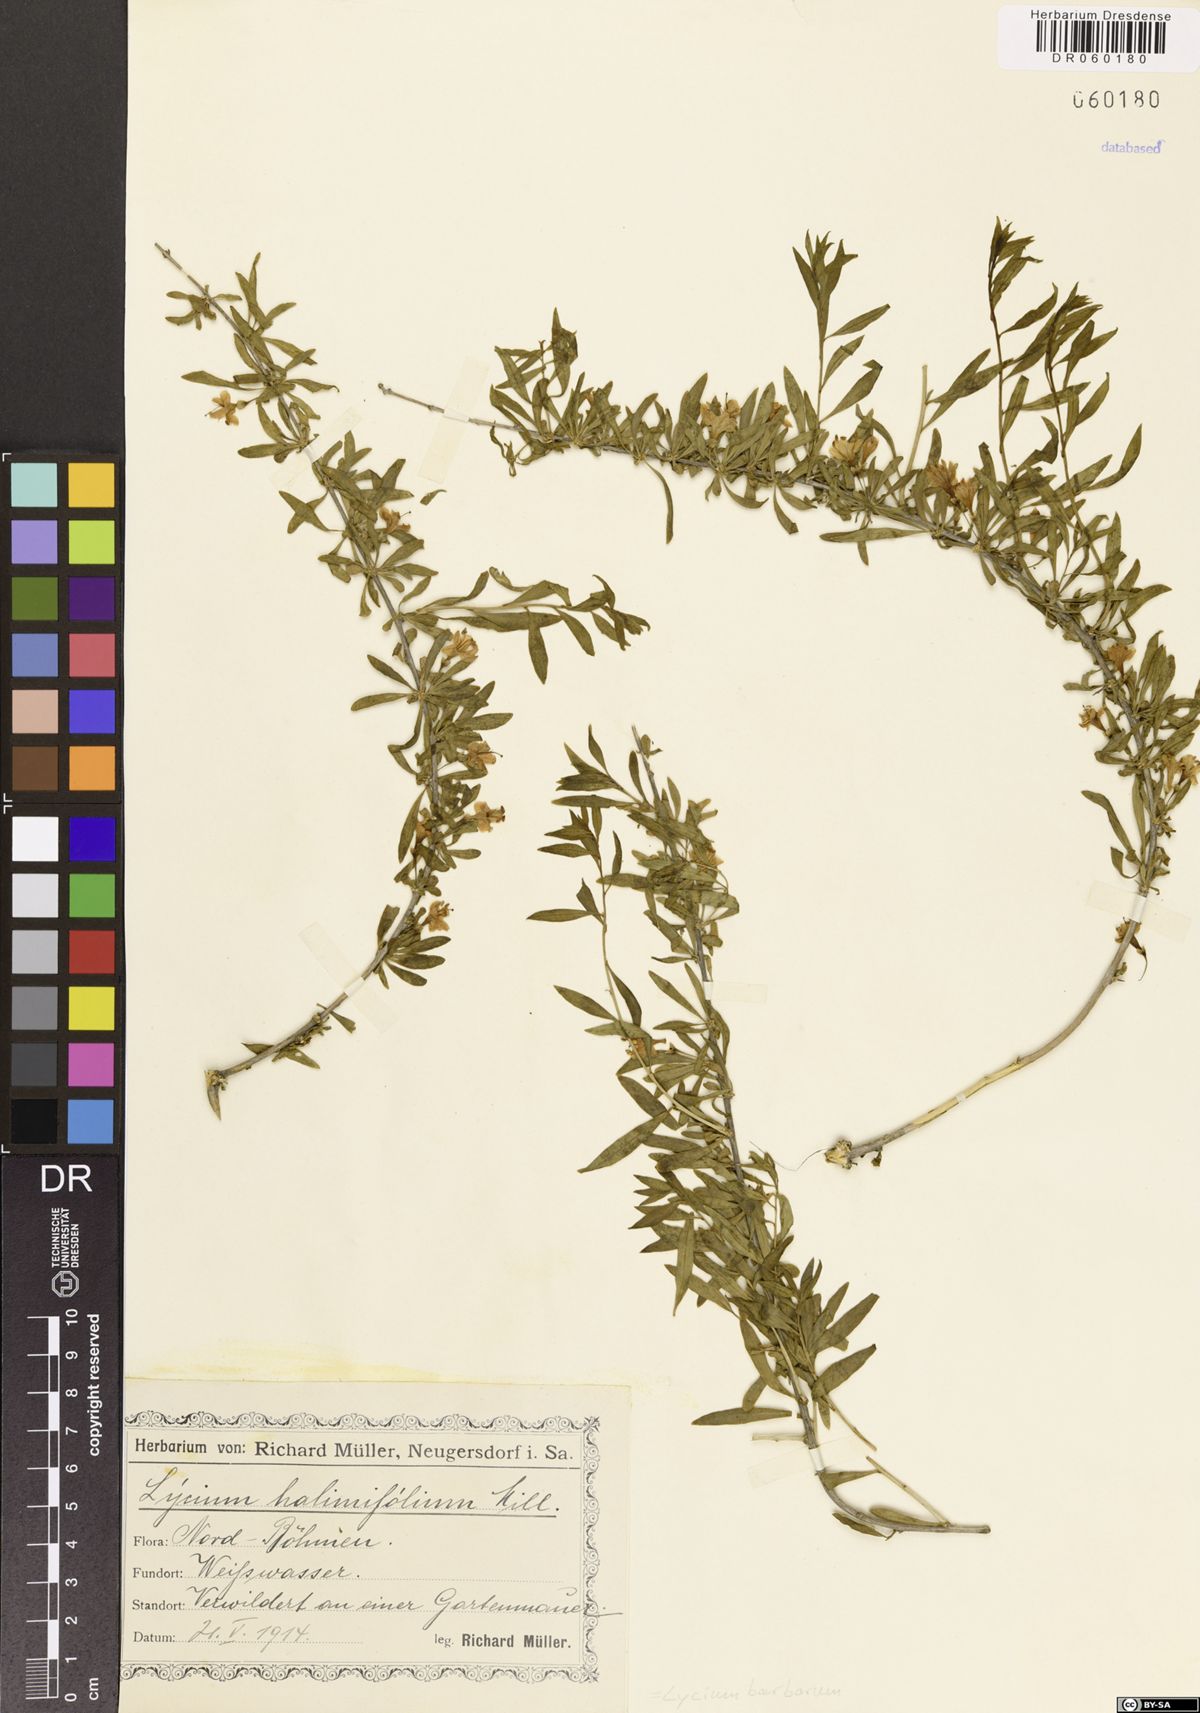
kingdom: Plantae
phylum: Tracheophyta
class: Magnoliopsida
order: Solanales
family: Solanaceae
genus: Lycium
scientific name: Lycium barbarum
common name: Duke of argyll's teaplant
